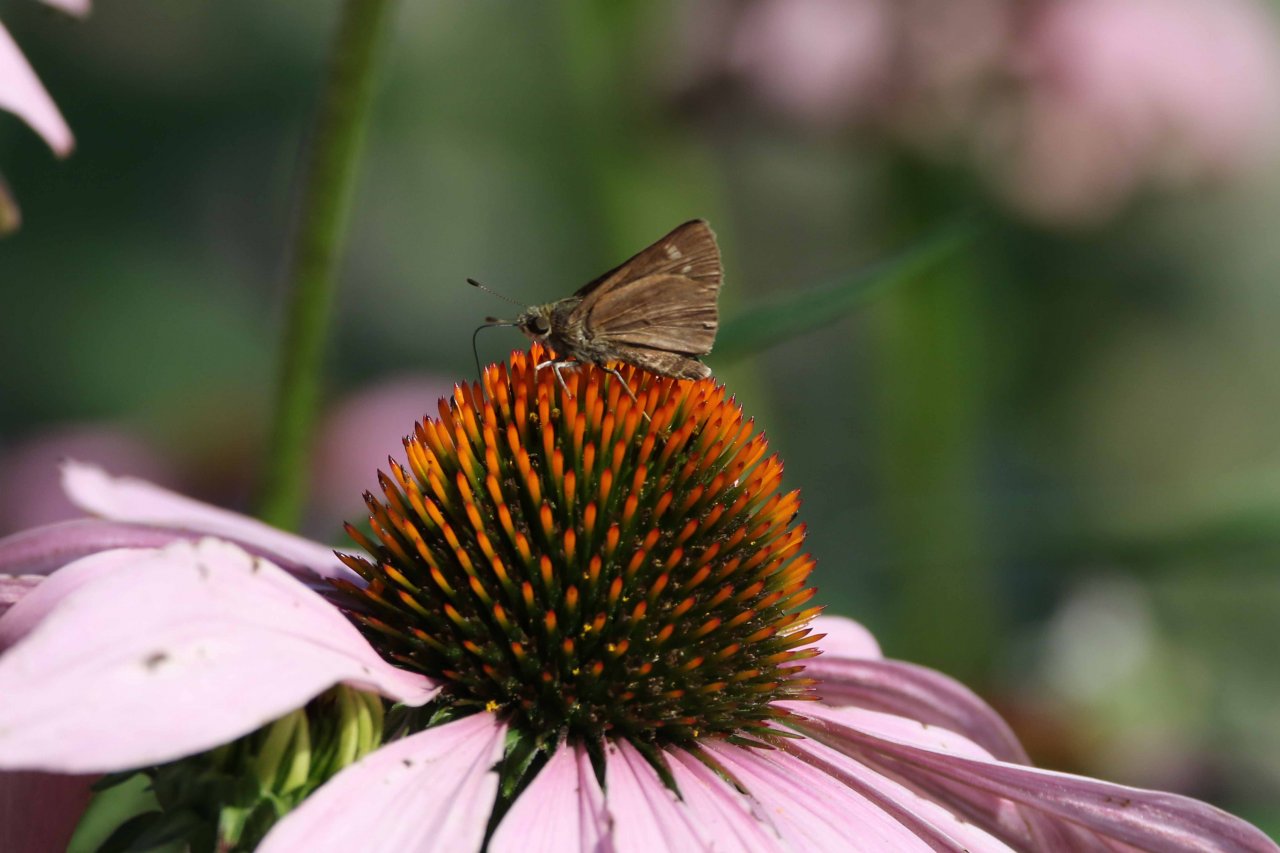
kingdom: Animalia
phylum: Arthropoda
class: Insecta
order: Lepidoptera
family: Hesperiidae
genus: Euphyes
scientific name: Euphyes vestris
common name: Dun Skipper
